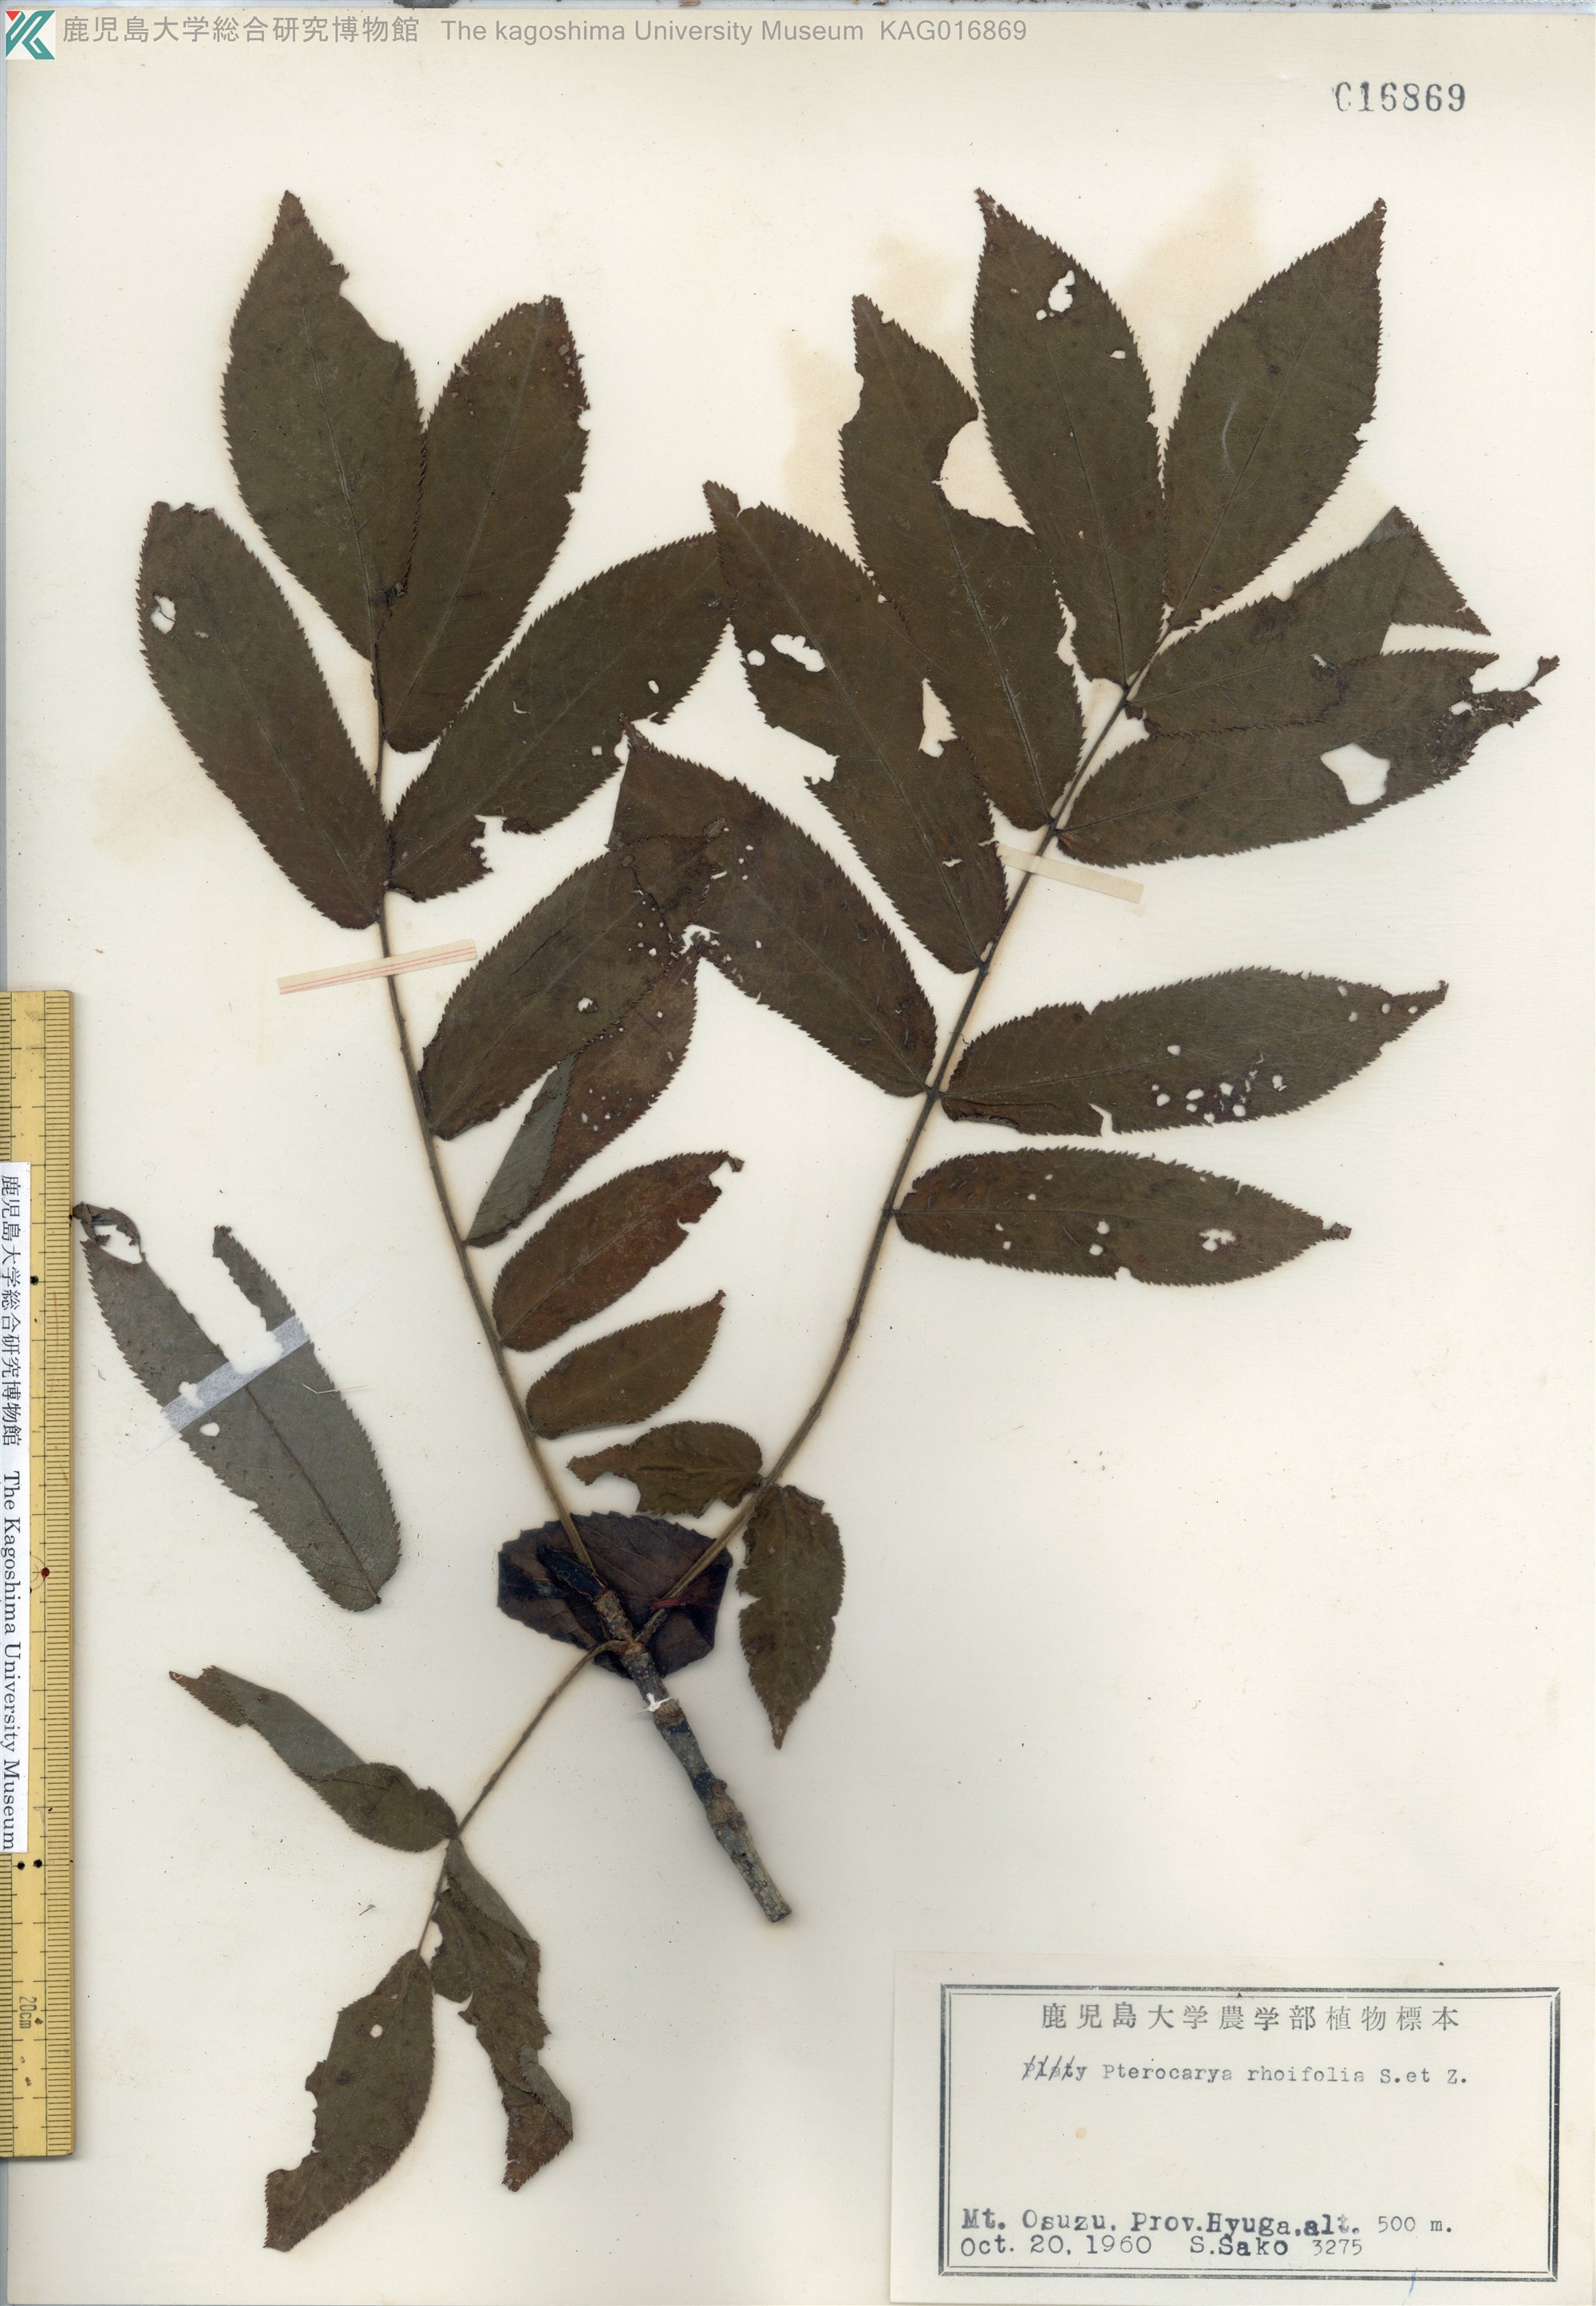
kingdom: Plantae
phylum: Tracheophyta
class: Magnoliopsida
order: Fagales
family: Juglandaceae
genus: Pterocarya
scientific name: Pterocarya rhoifolia
